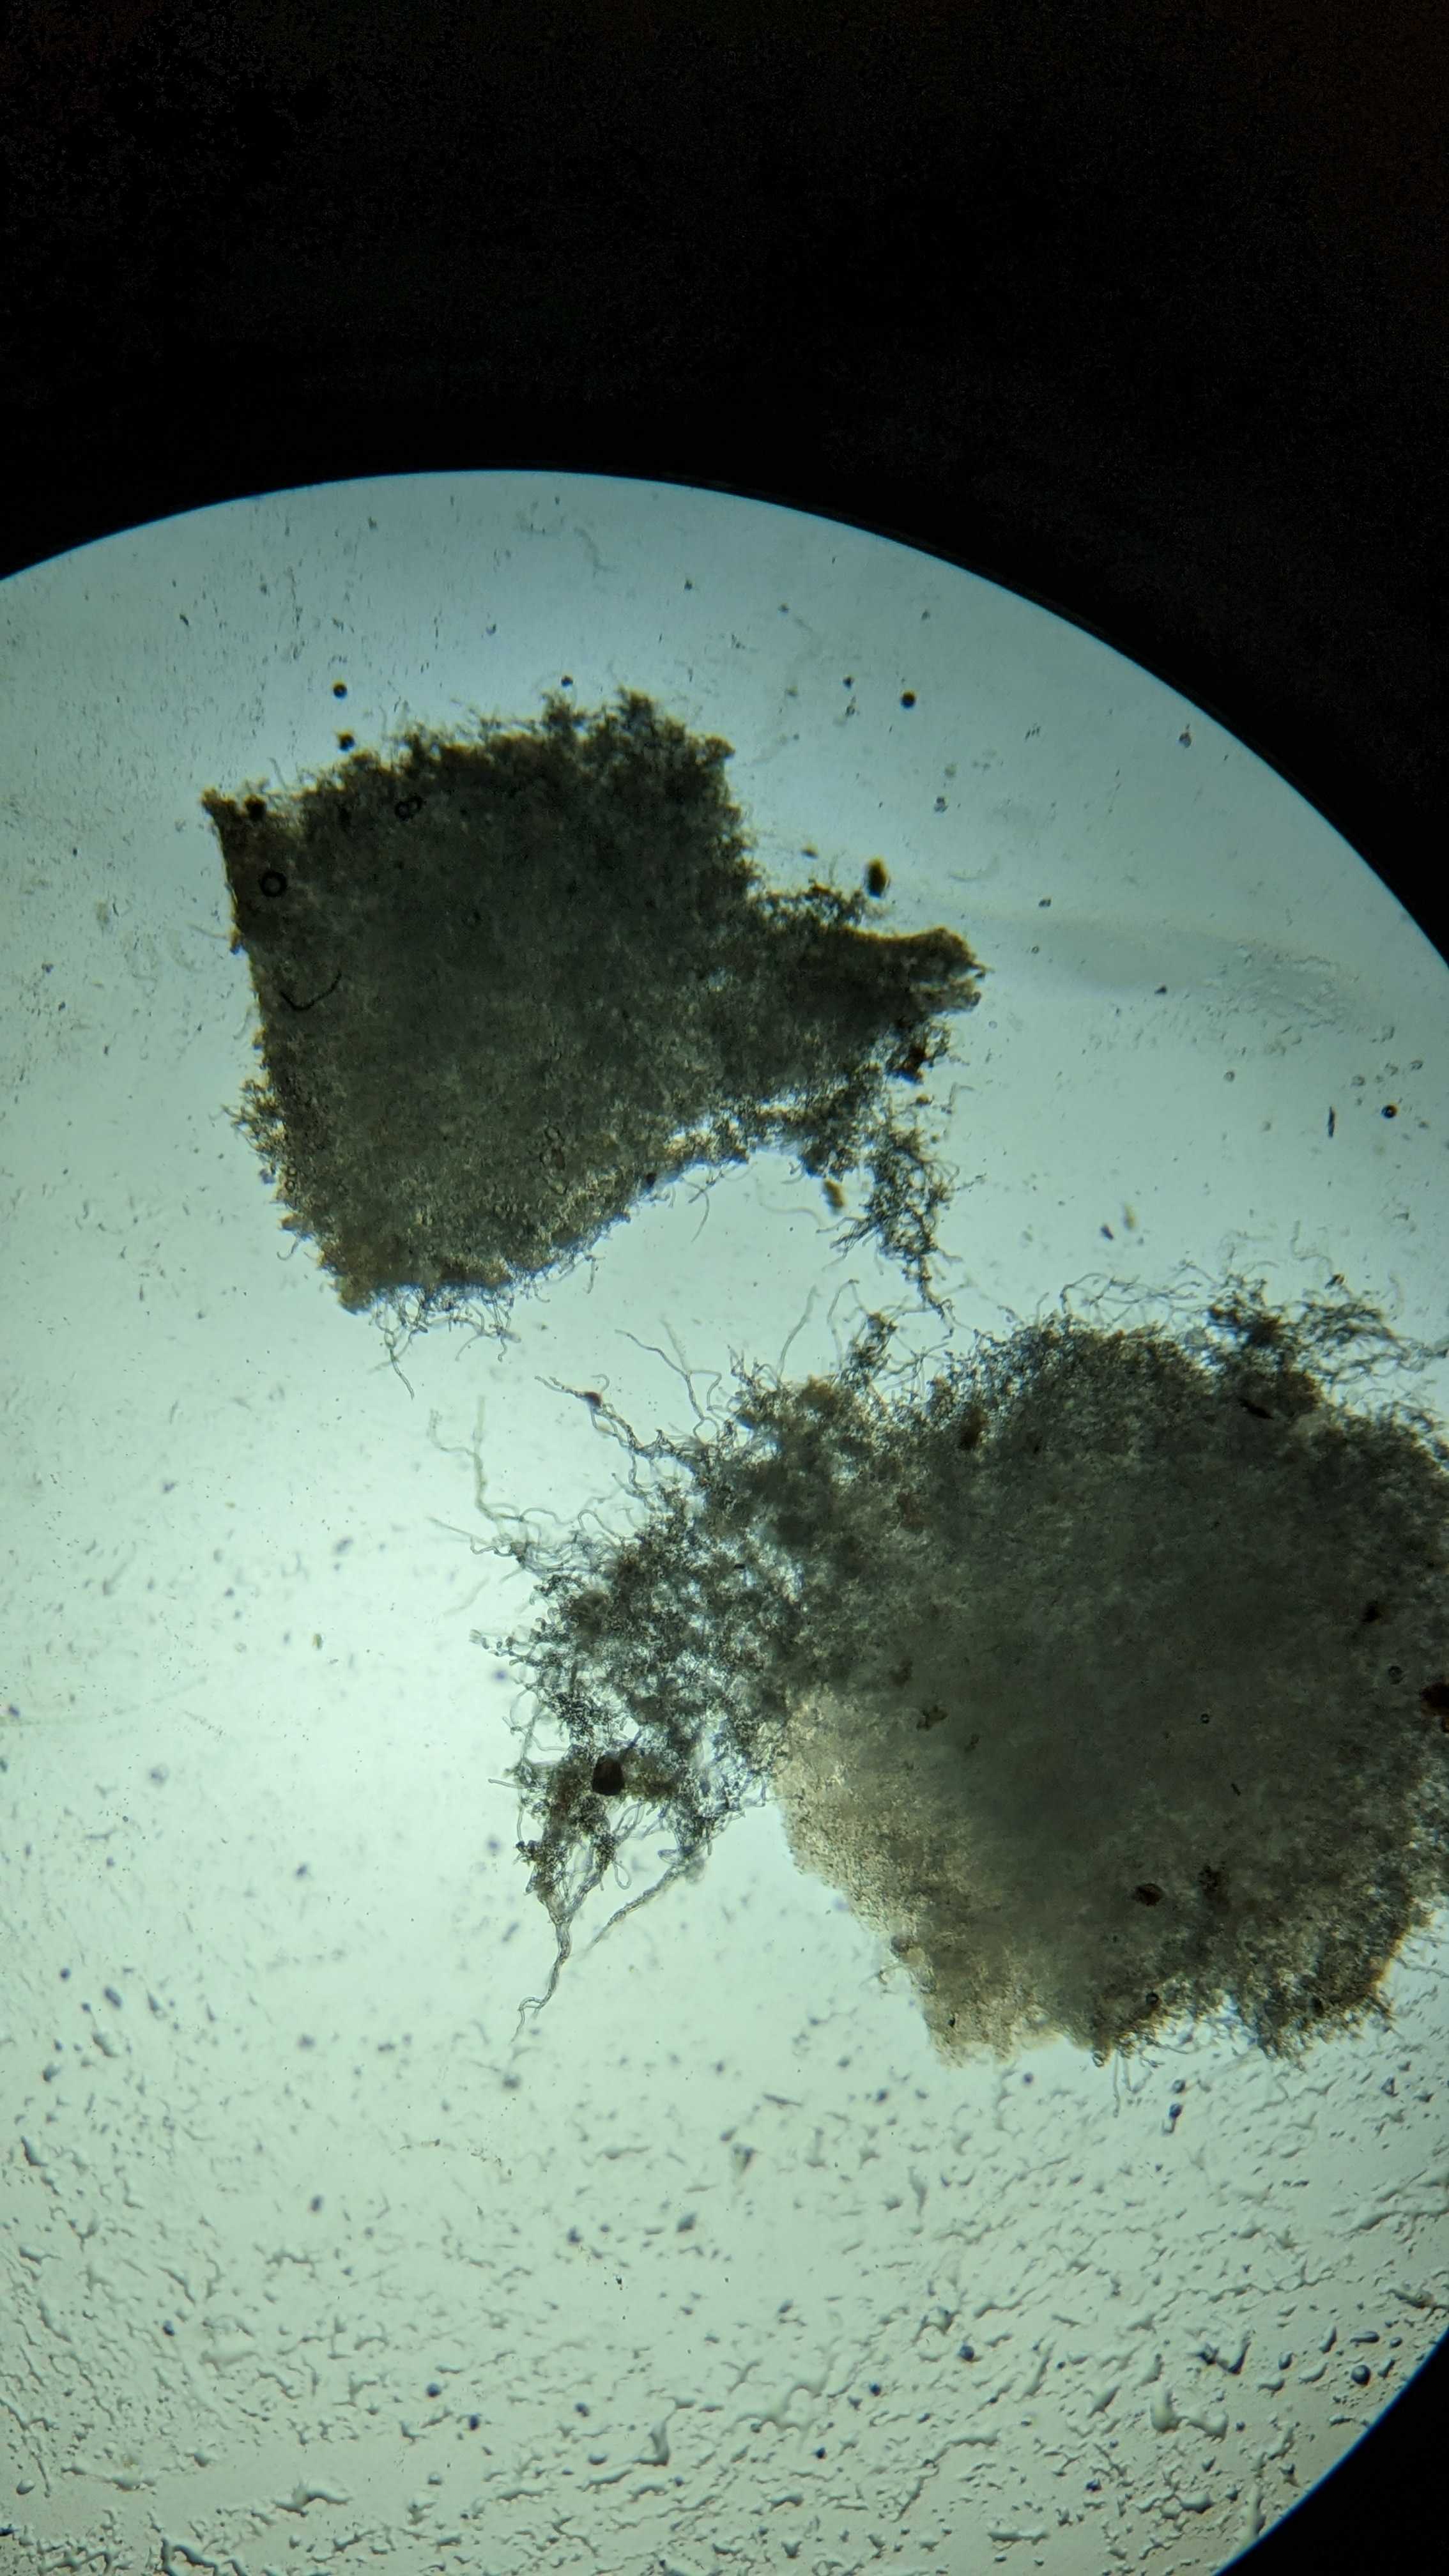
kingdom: Fungi
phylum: Ascomycota
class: Pezizomycetes
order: Pezizales
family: Sarcoscyphaceae
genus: Sarcoscypha
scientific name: Sarcoscypha austriaca
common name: krølhåret pragtbæger
